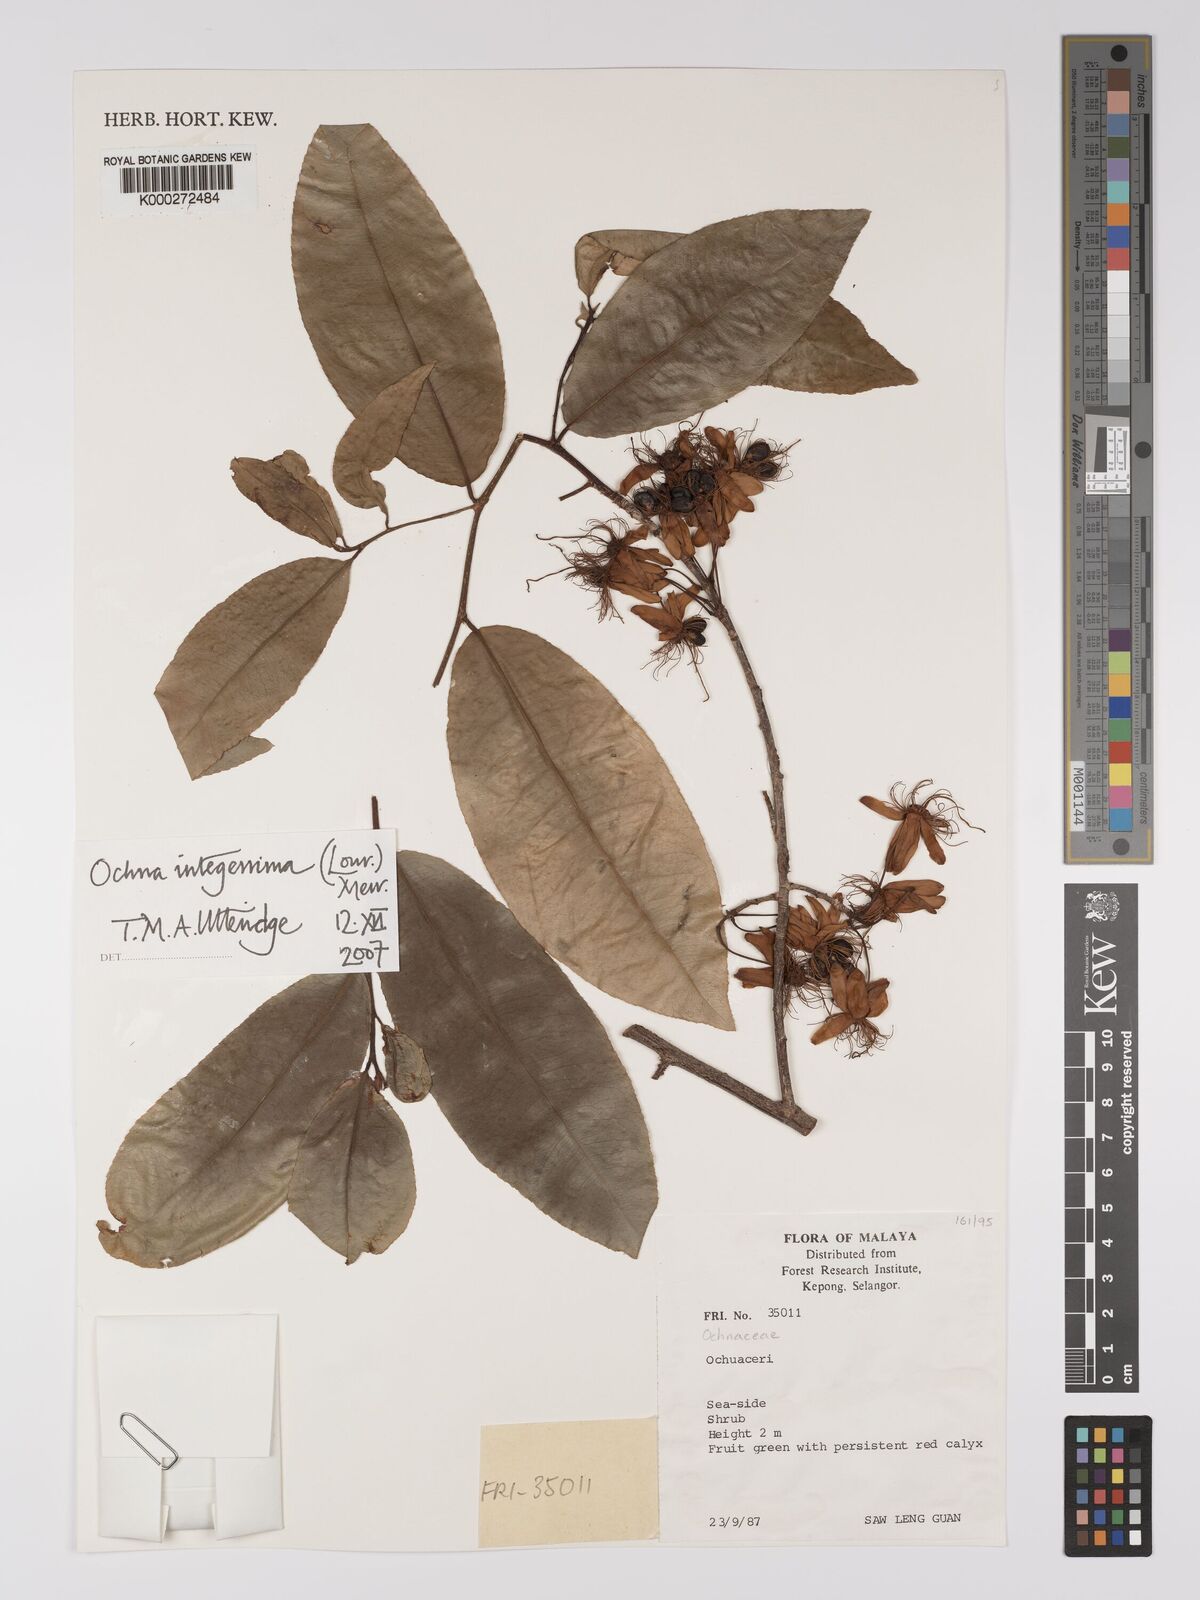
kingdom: Plantae
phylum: Tracheophyta
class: Magnoliopsida
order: Malpighiales
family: Ochnaceae
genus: Ochna
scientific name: Ochna integerrima
